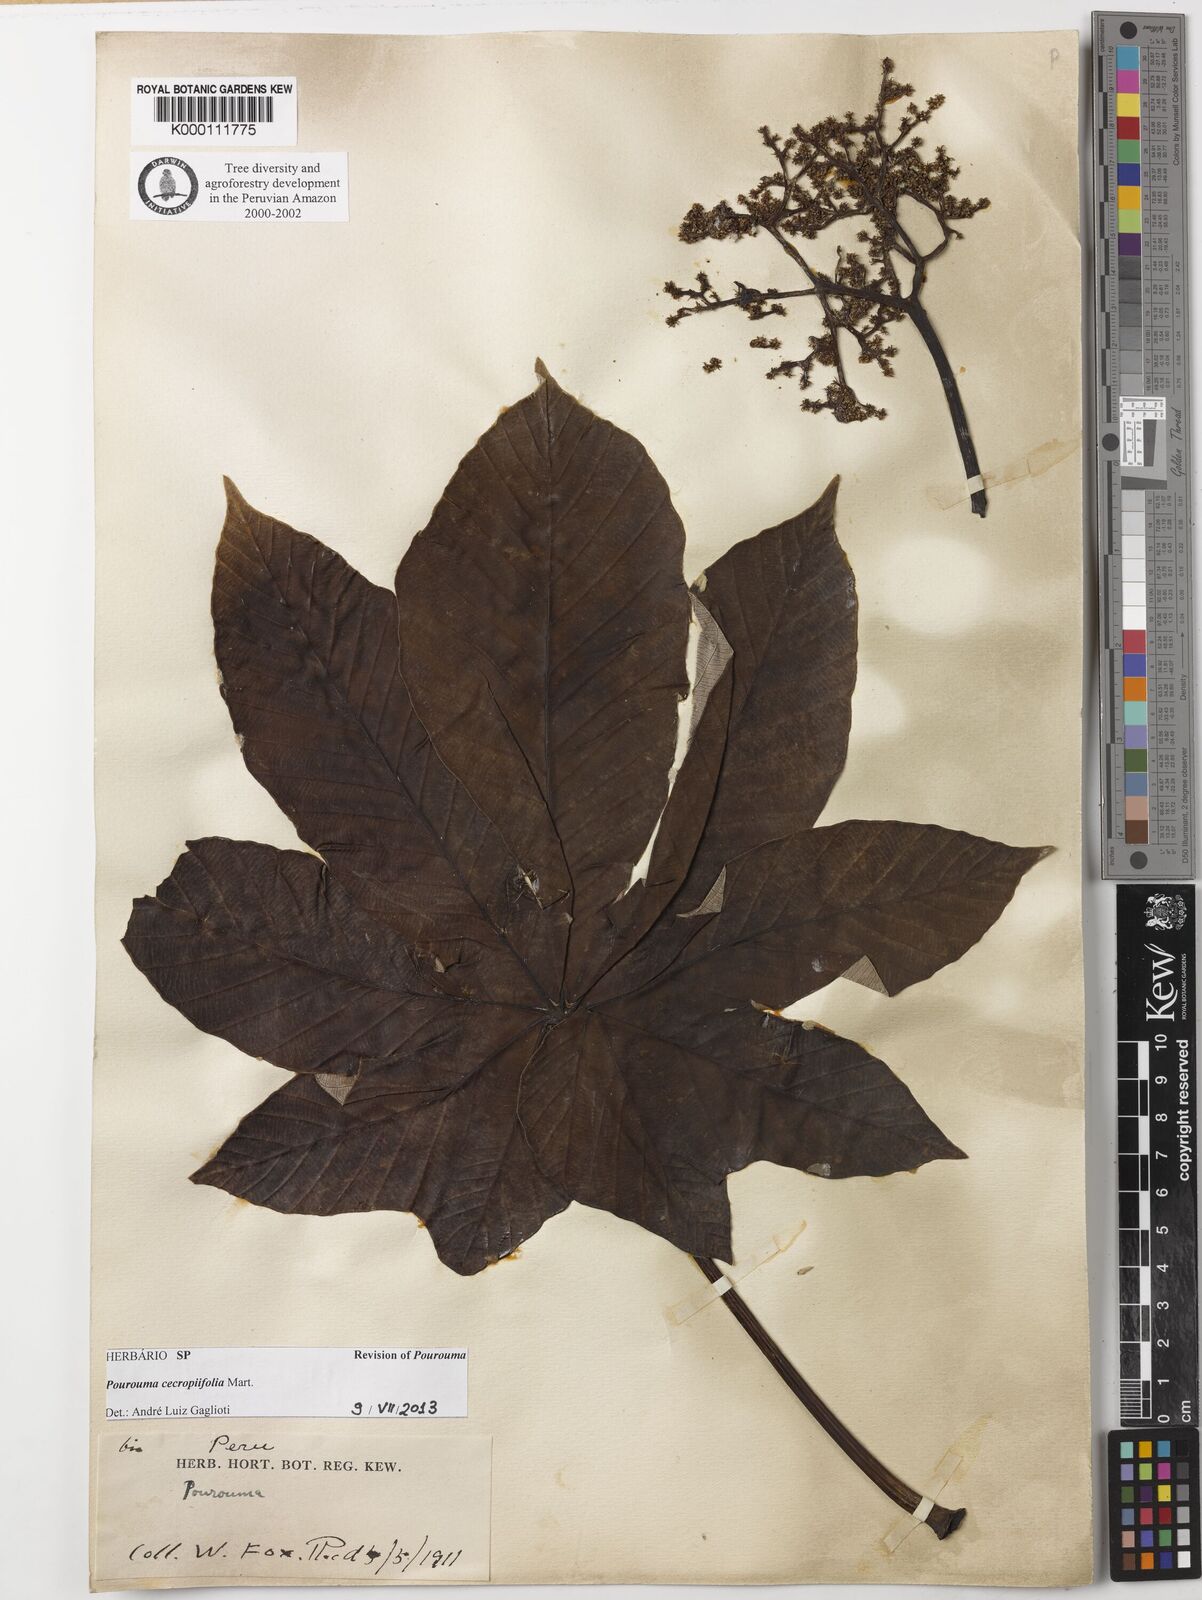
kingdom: Plantae
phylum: Tracheophyta
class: Magnoliopsida
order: Rosales
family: Urticaceae
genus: Pourouma
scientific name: Pourouma cecropiifolia
